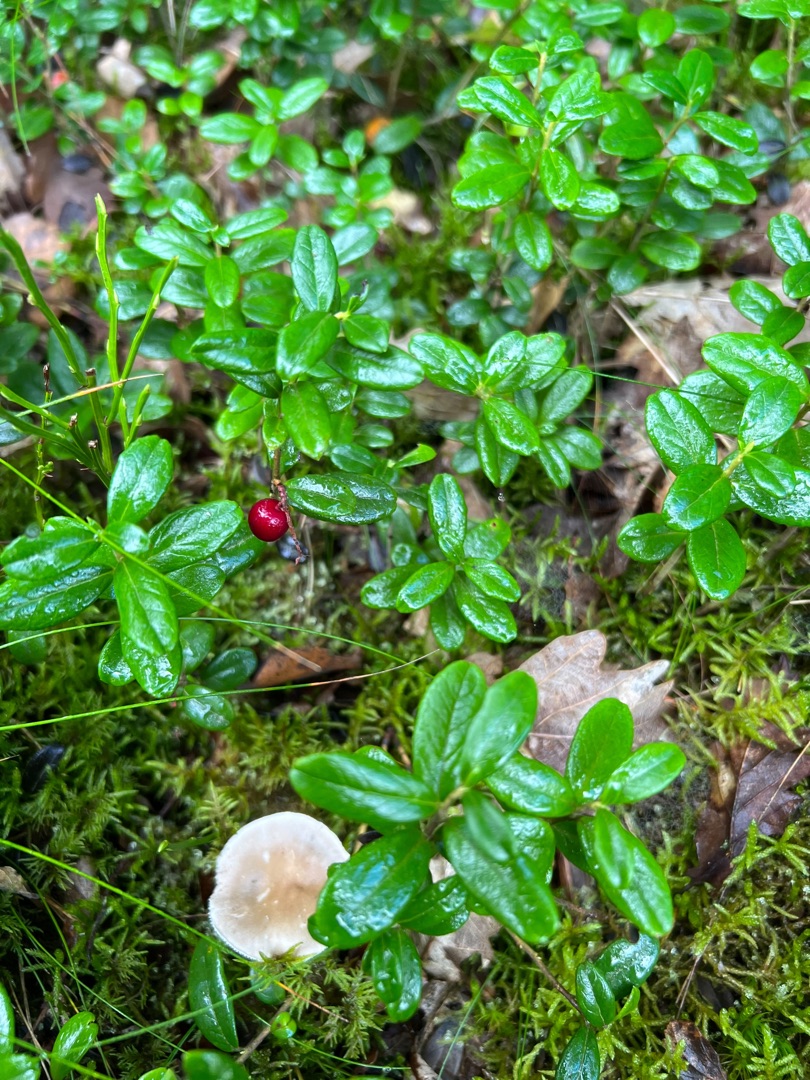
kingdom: Plantae
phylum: Tracheophyta
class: Magnoliopsida
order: Ericales
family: Ericaceae
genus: Vaccinium
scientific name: Vaccinium vitis-idaea
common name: Tyttebær
